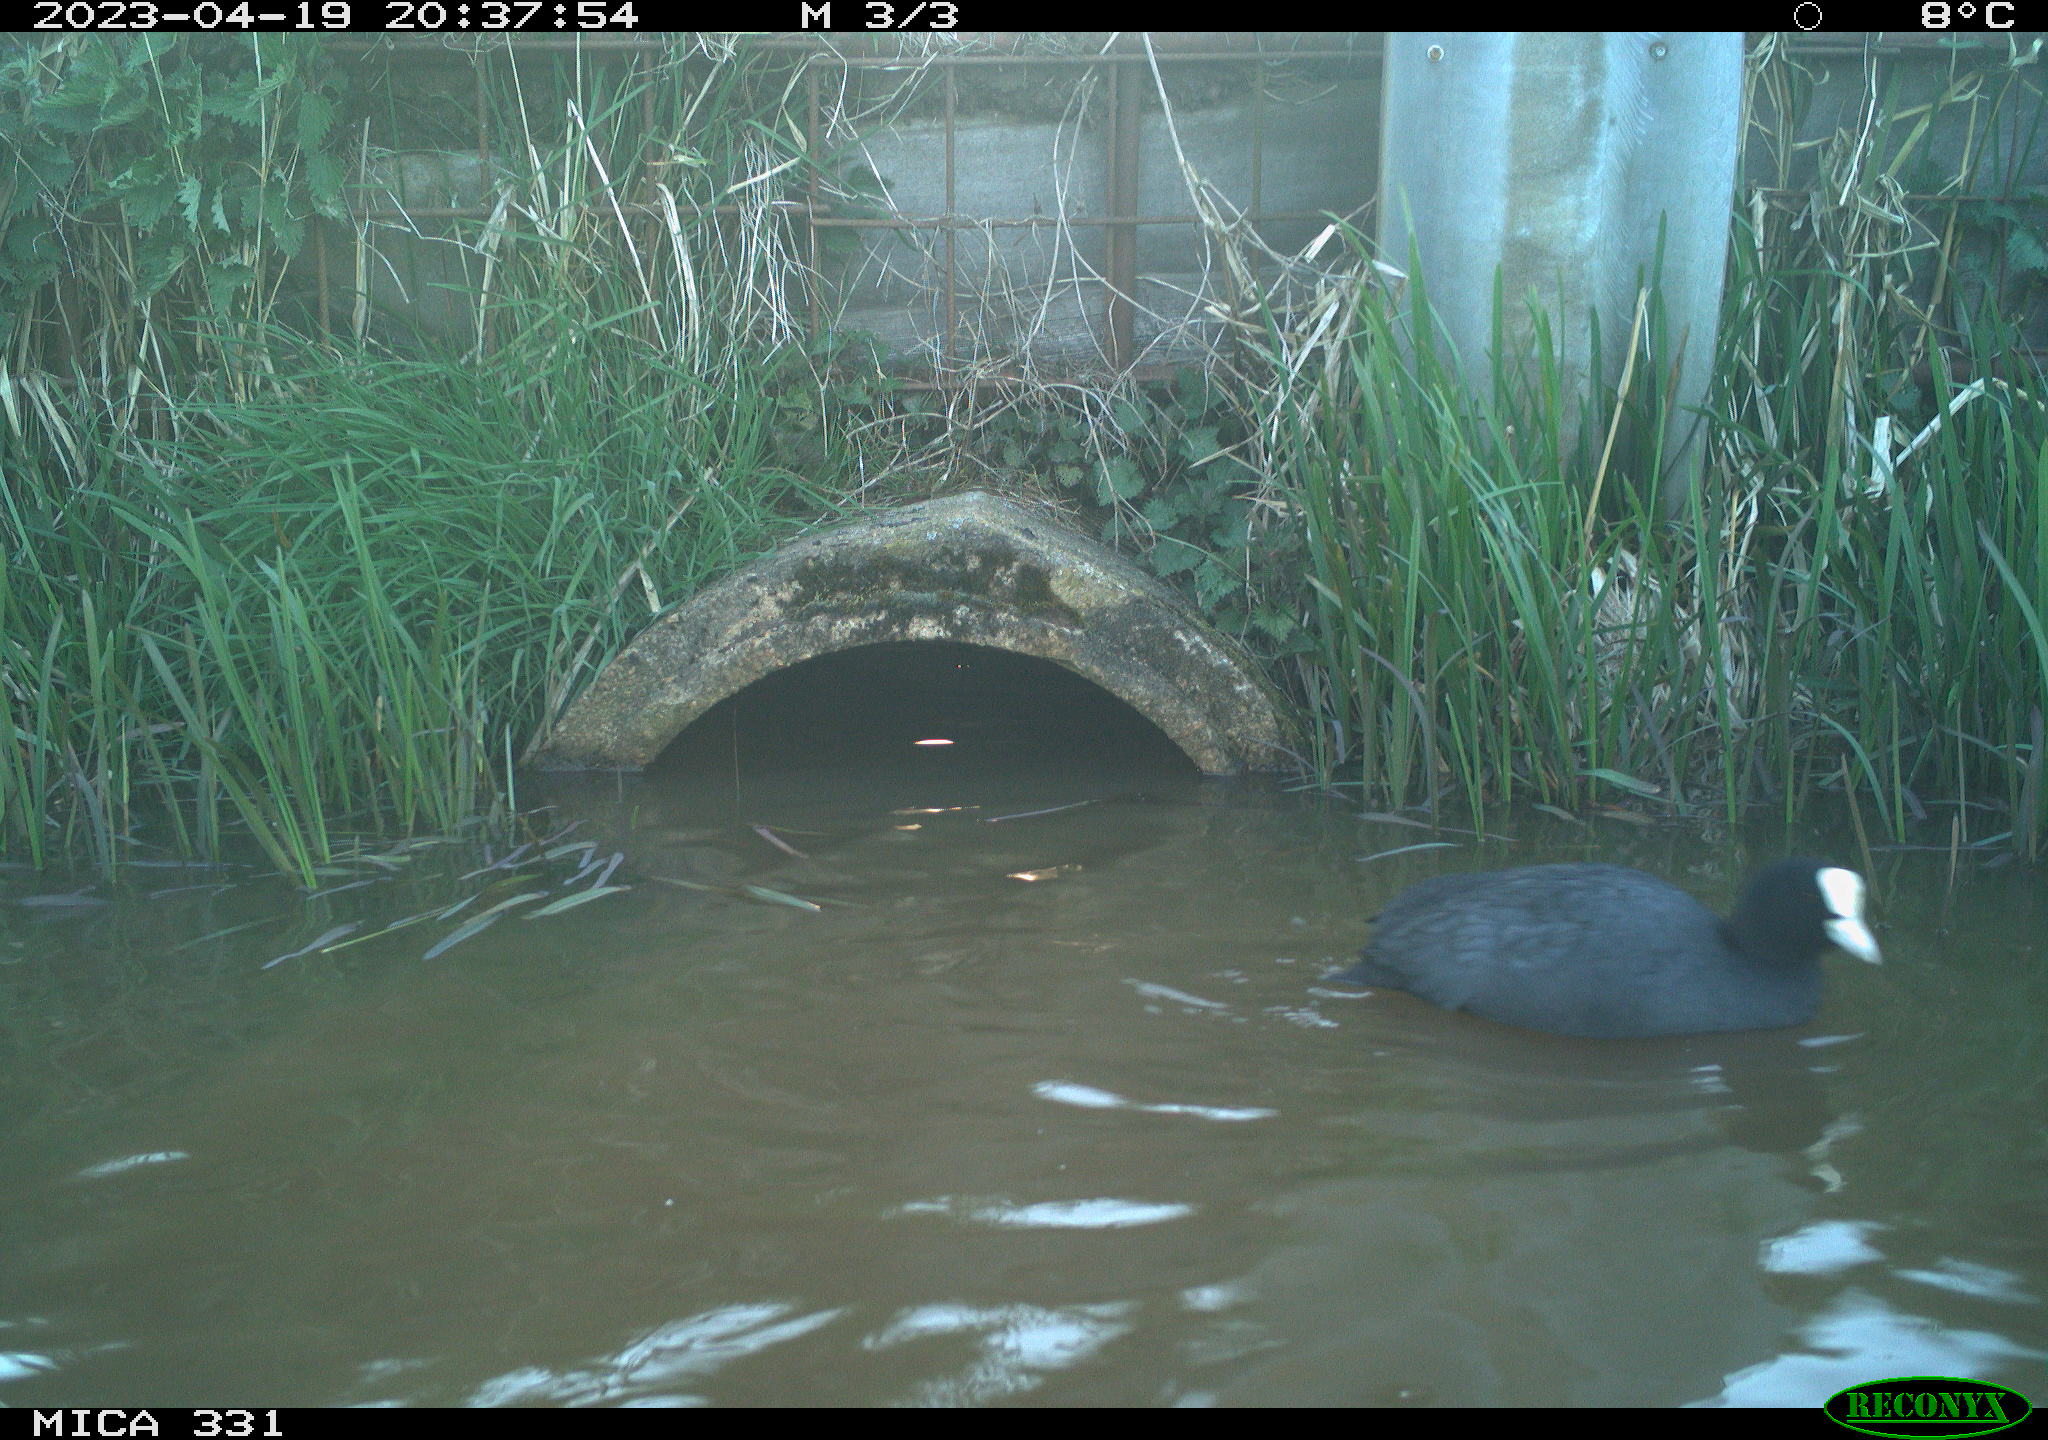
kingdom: Animalia
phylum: Chordata
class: Aves
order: Gruiformes
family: Rallidae
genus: Fulica
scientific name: Fulica atra
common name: Eurasian coot
